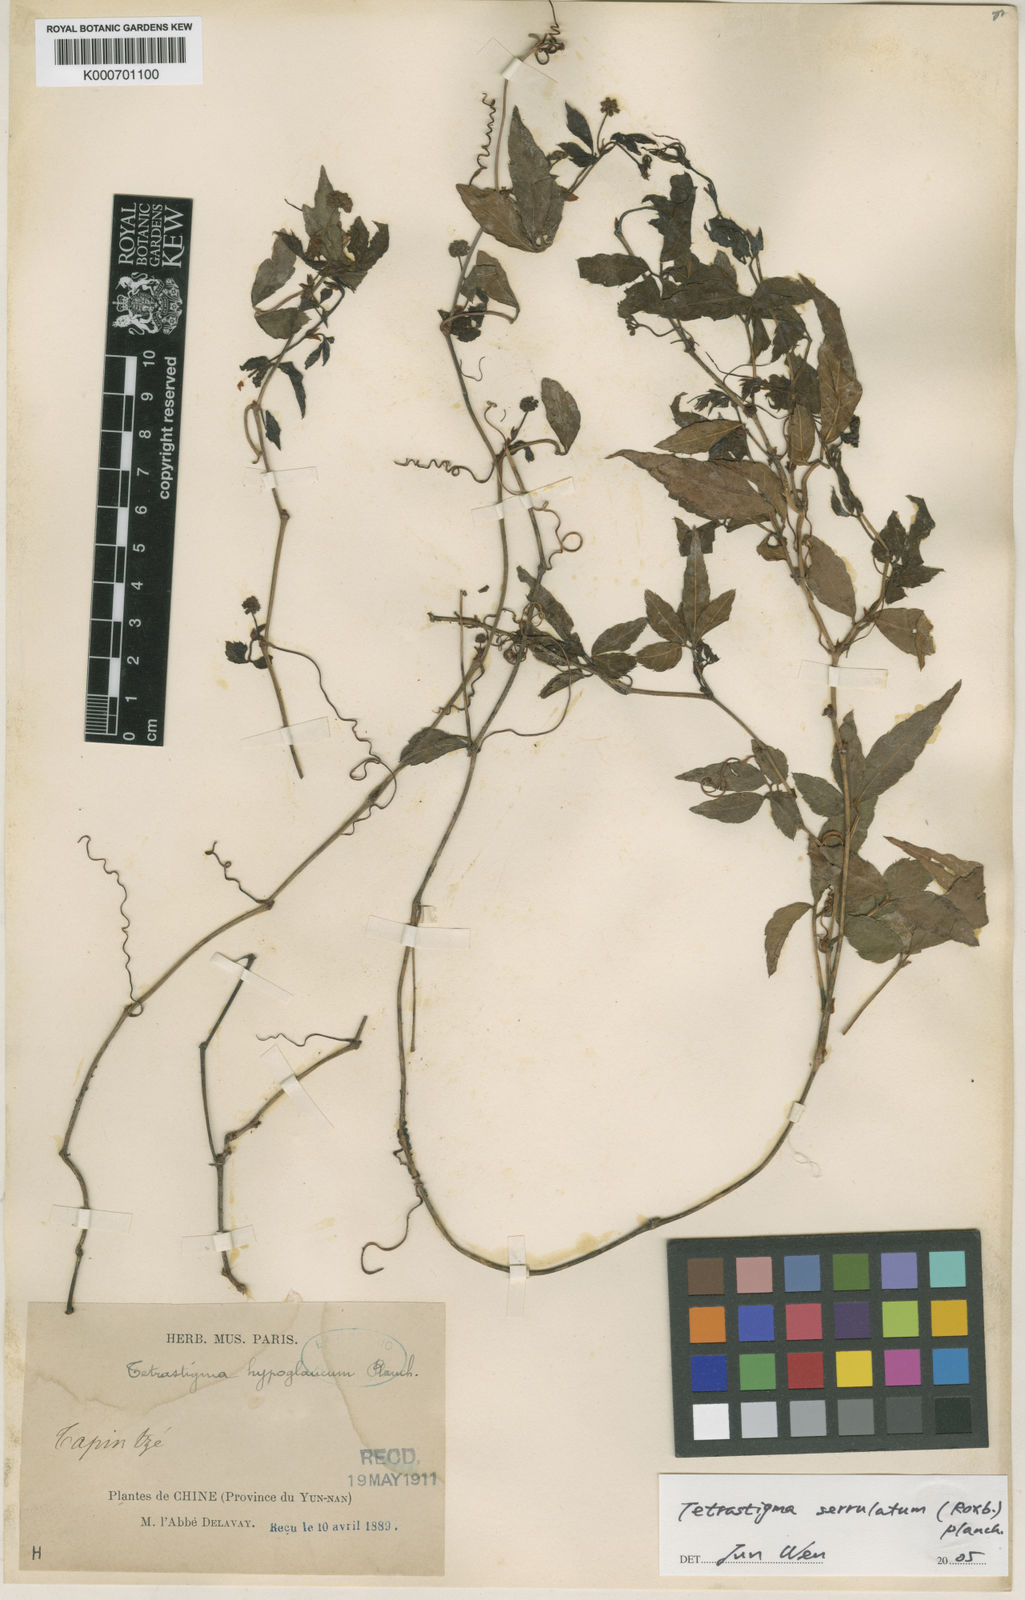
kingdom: Plantae
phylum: Tracheophyta
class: Magnoliopsida
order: Vitales
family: Vitaceae
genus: Tetrastigma
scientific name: Tetrastigma hypoglaucum
